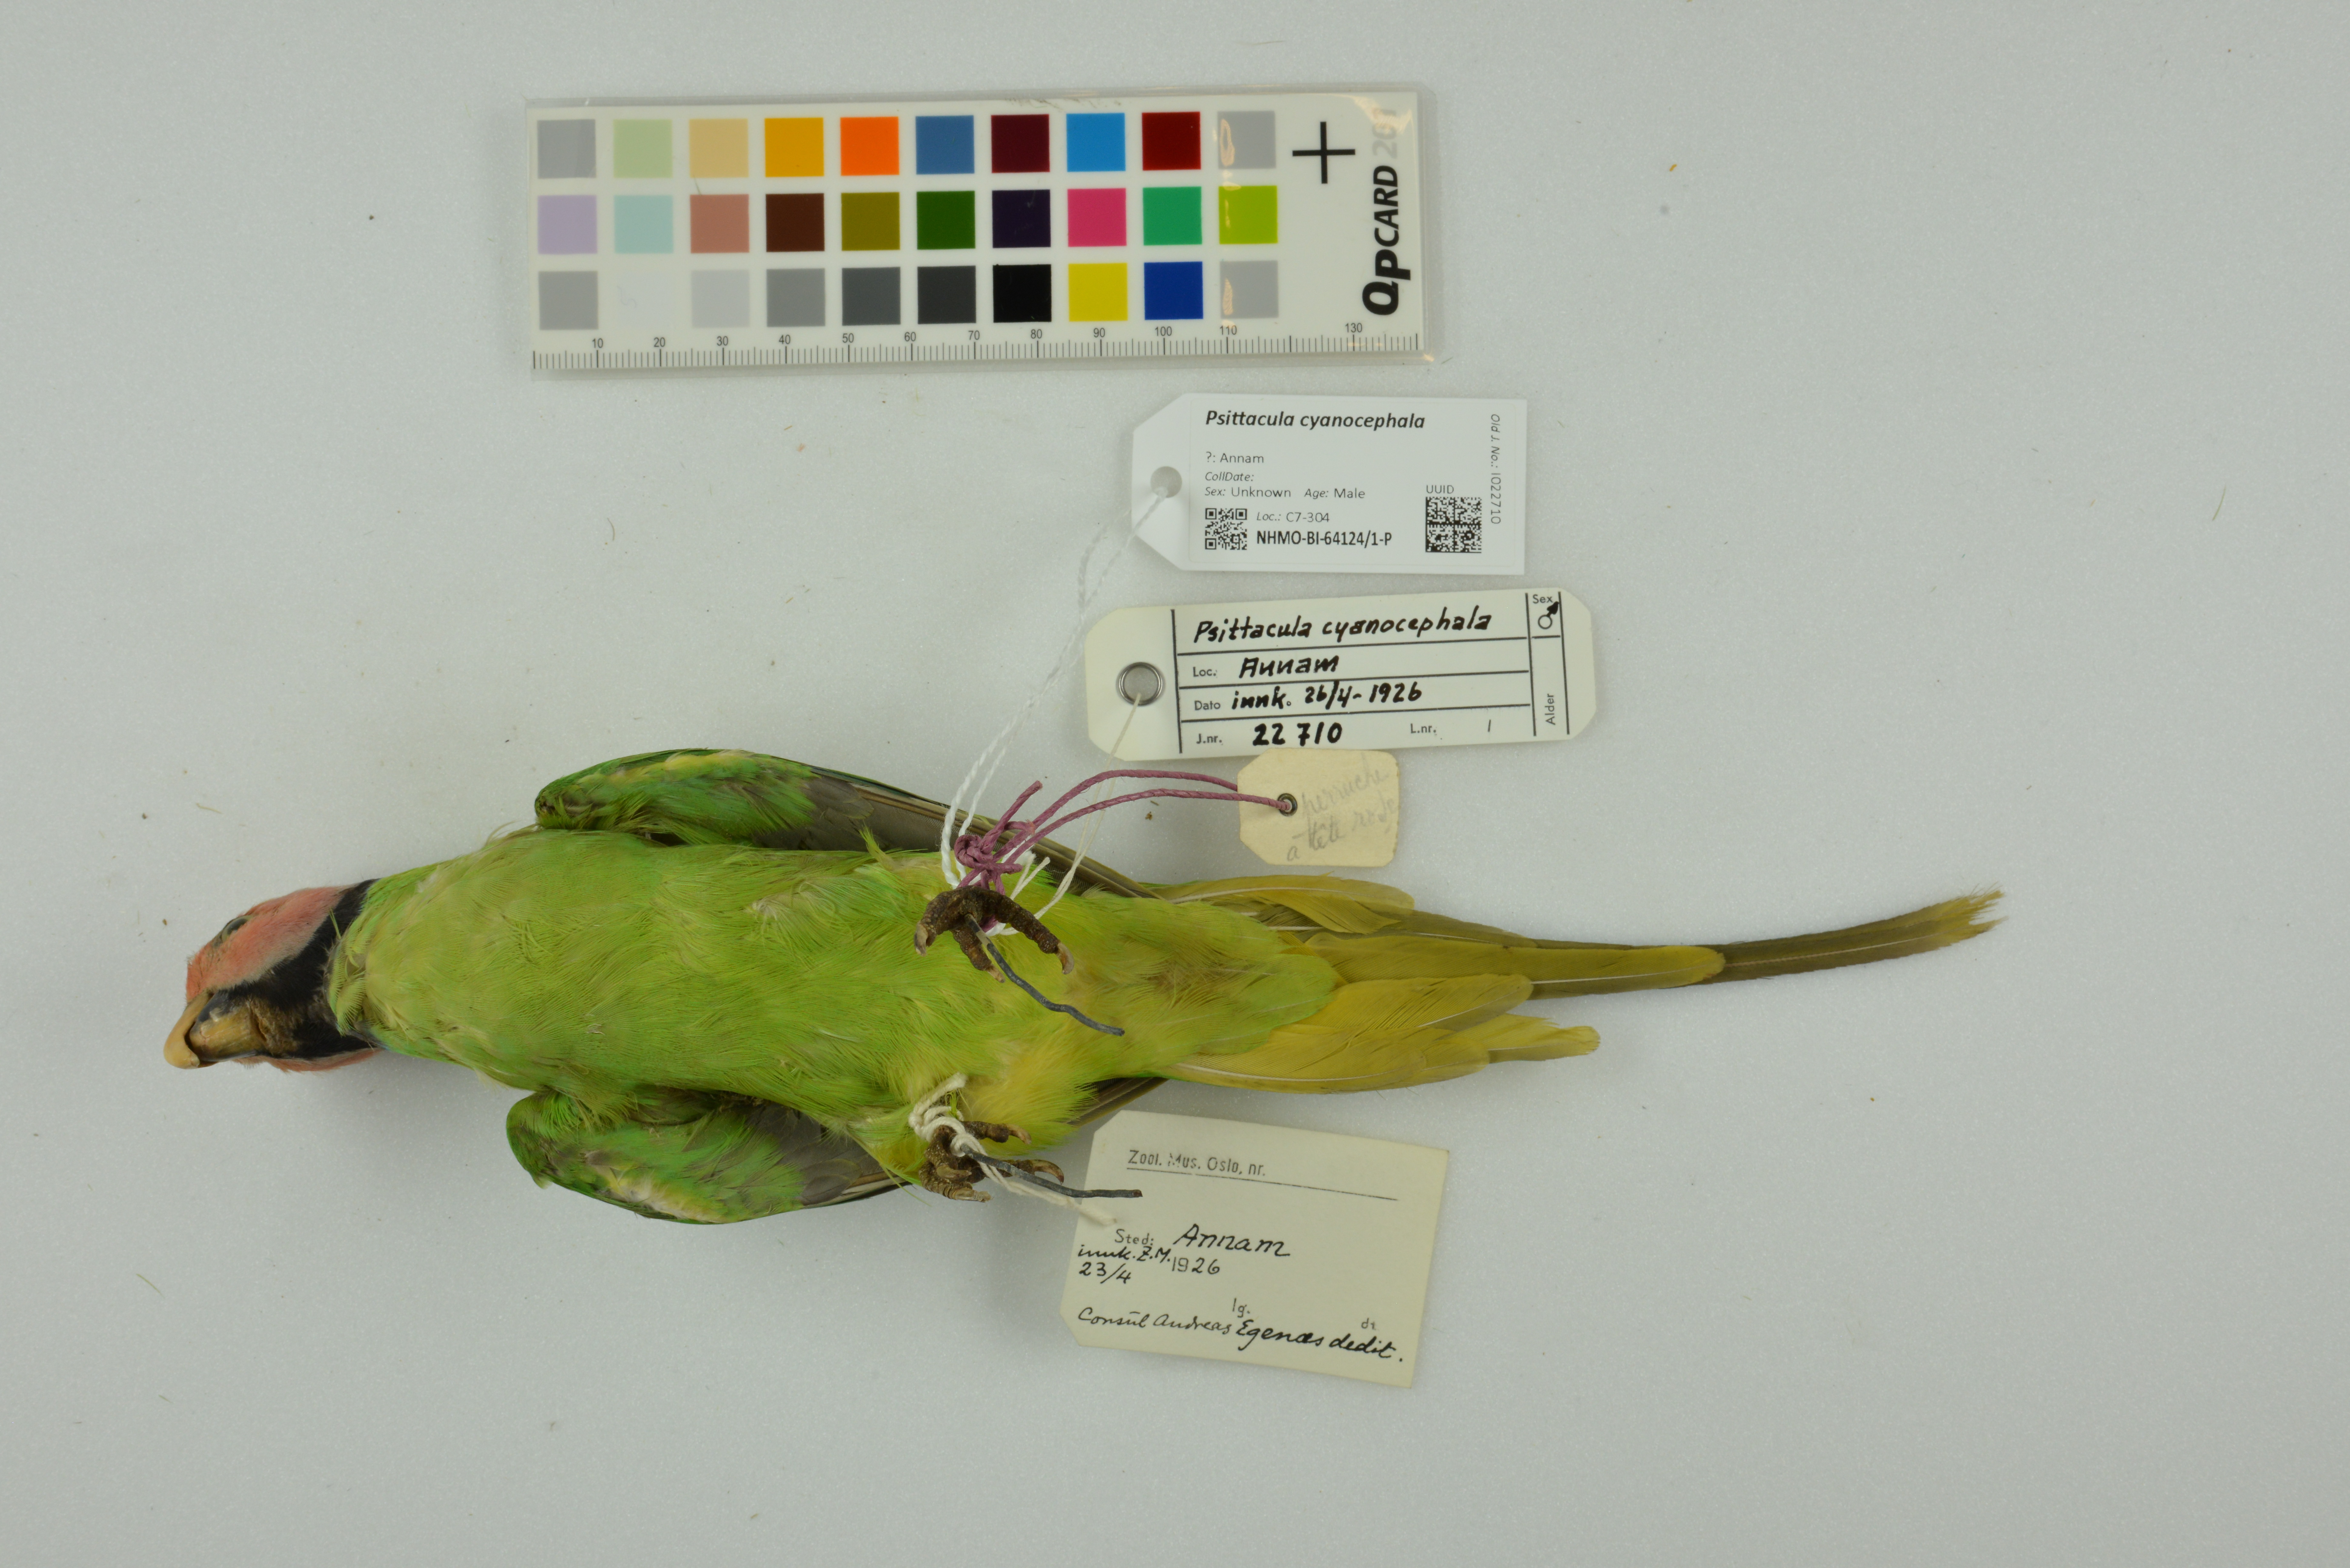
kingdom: Animalia
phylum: Chordata
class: Aves
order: Psittaciformes
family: Psittacidae
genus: Psittacula
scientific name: Psittacula cyanocephala
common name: Plum-headed parakeet
